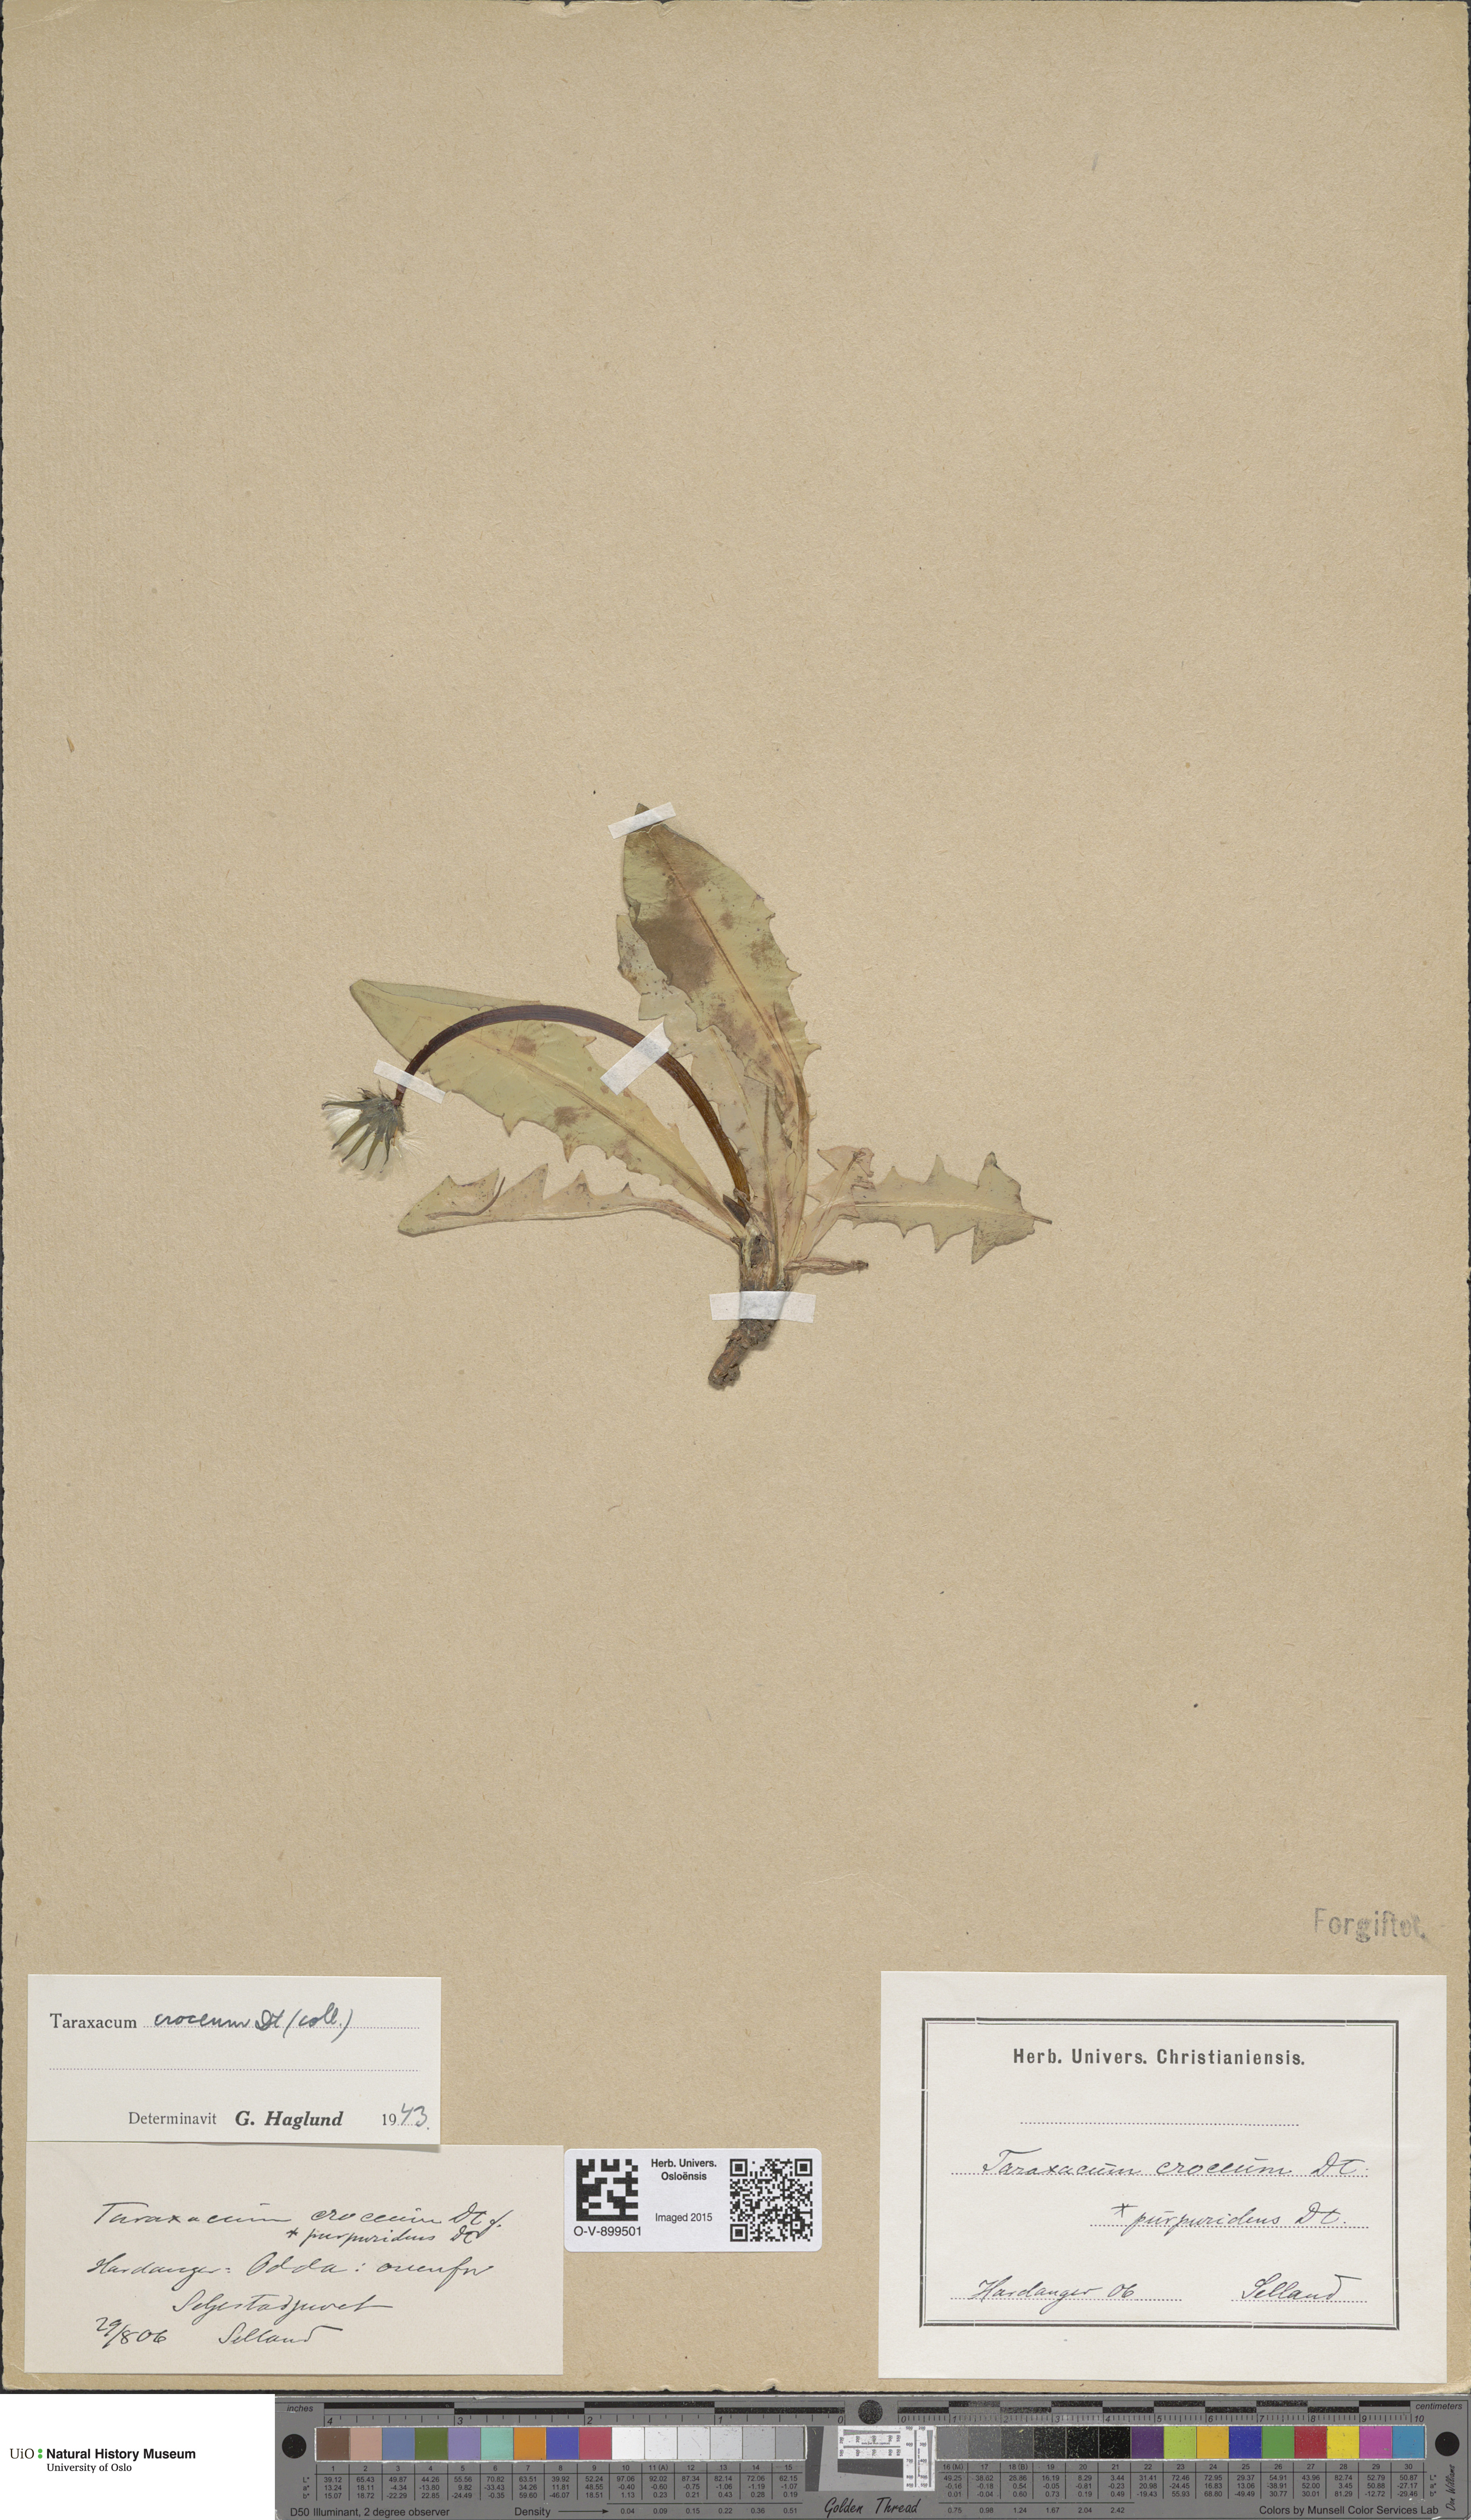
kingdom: Plantae
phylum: Tracheophyta
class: Magnoliopsida
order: Asterales
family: Asteraceae
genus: Taraxacum
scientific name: Taraxacum croceum
